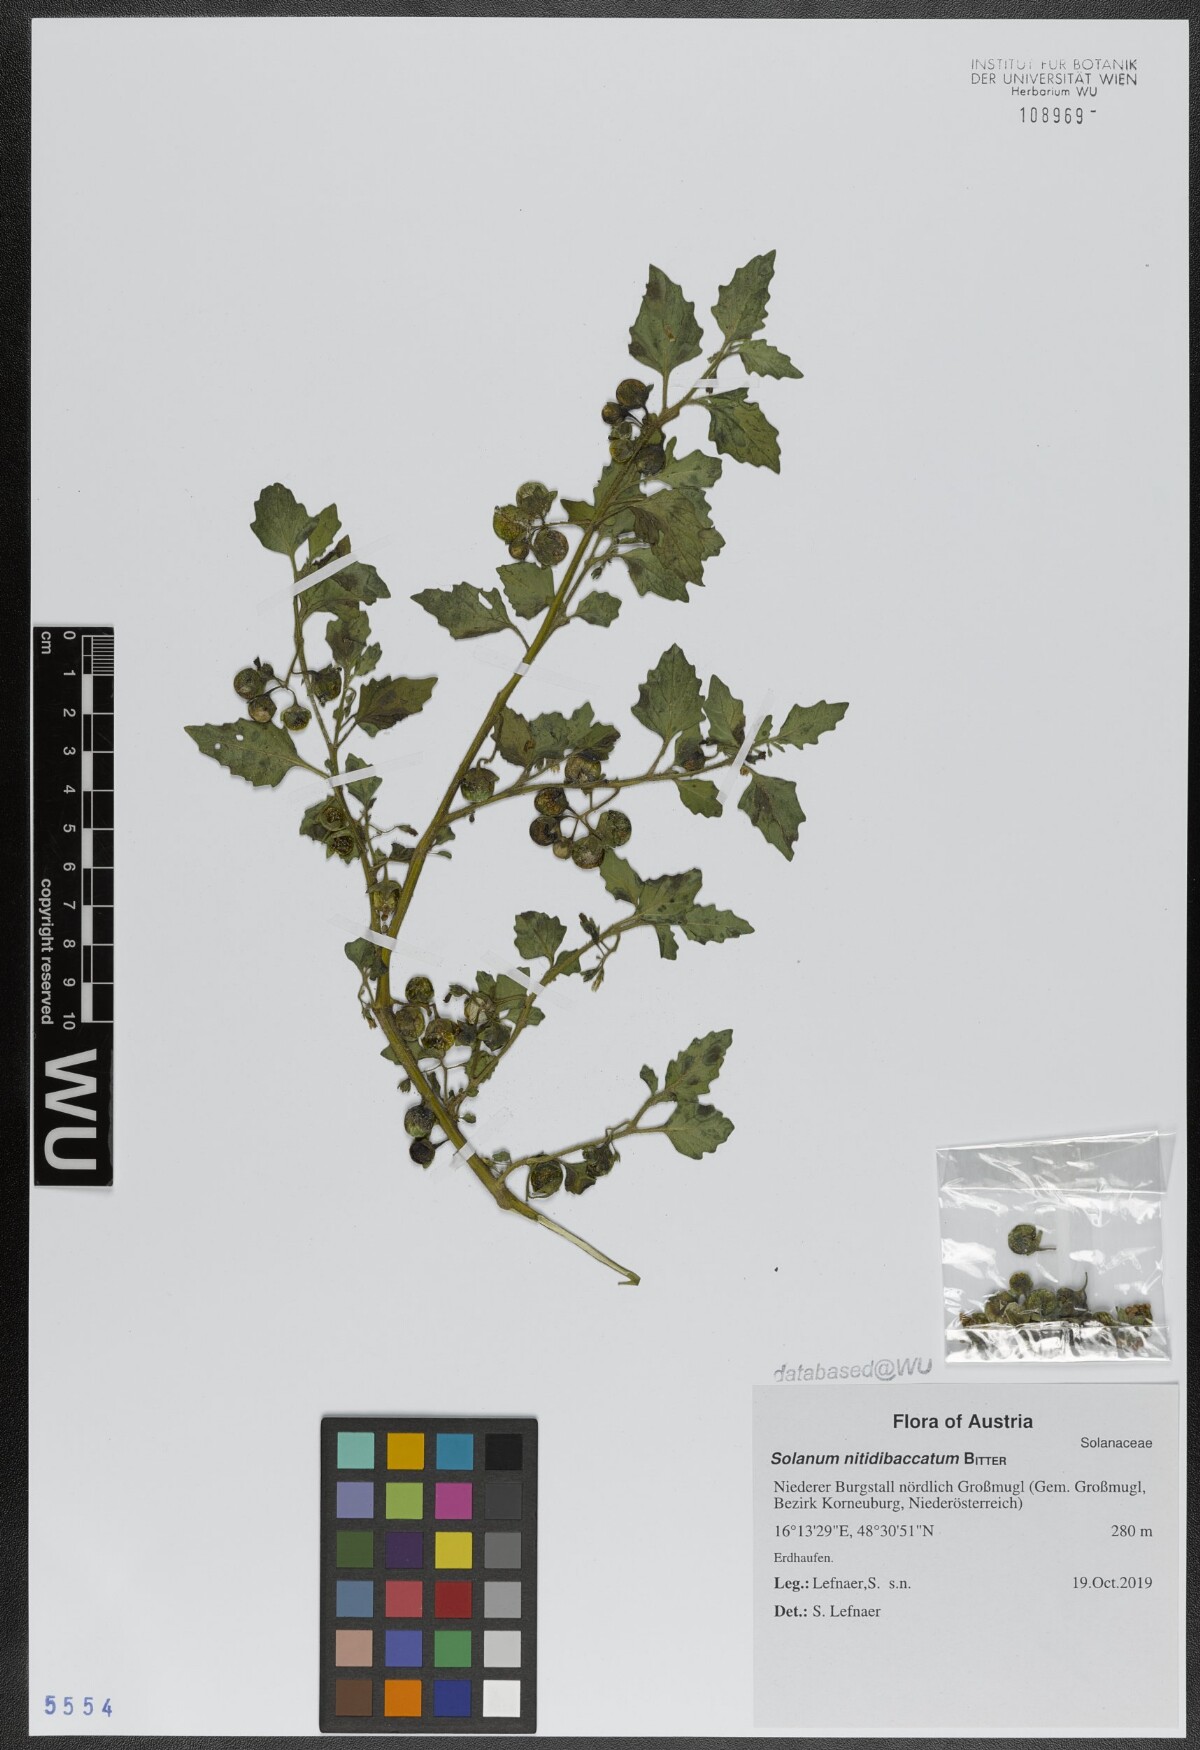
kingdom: Plantae
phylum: Tracheophyta
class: Magnoliopsida
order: Solanales
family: Solanaceae
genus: Solanum
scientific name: Solanum nitidibaccatum
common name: Hairy nightshade
